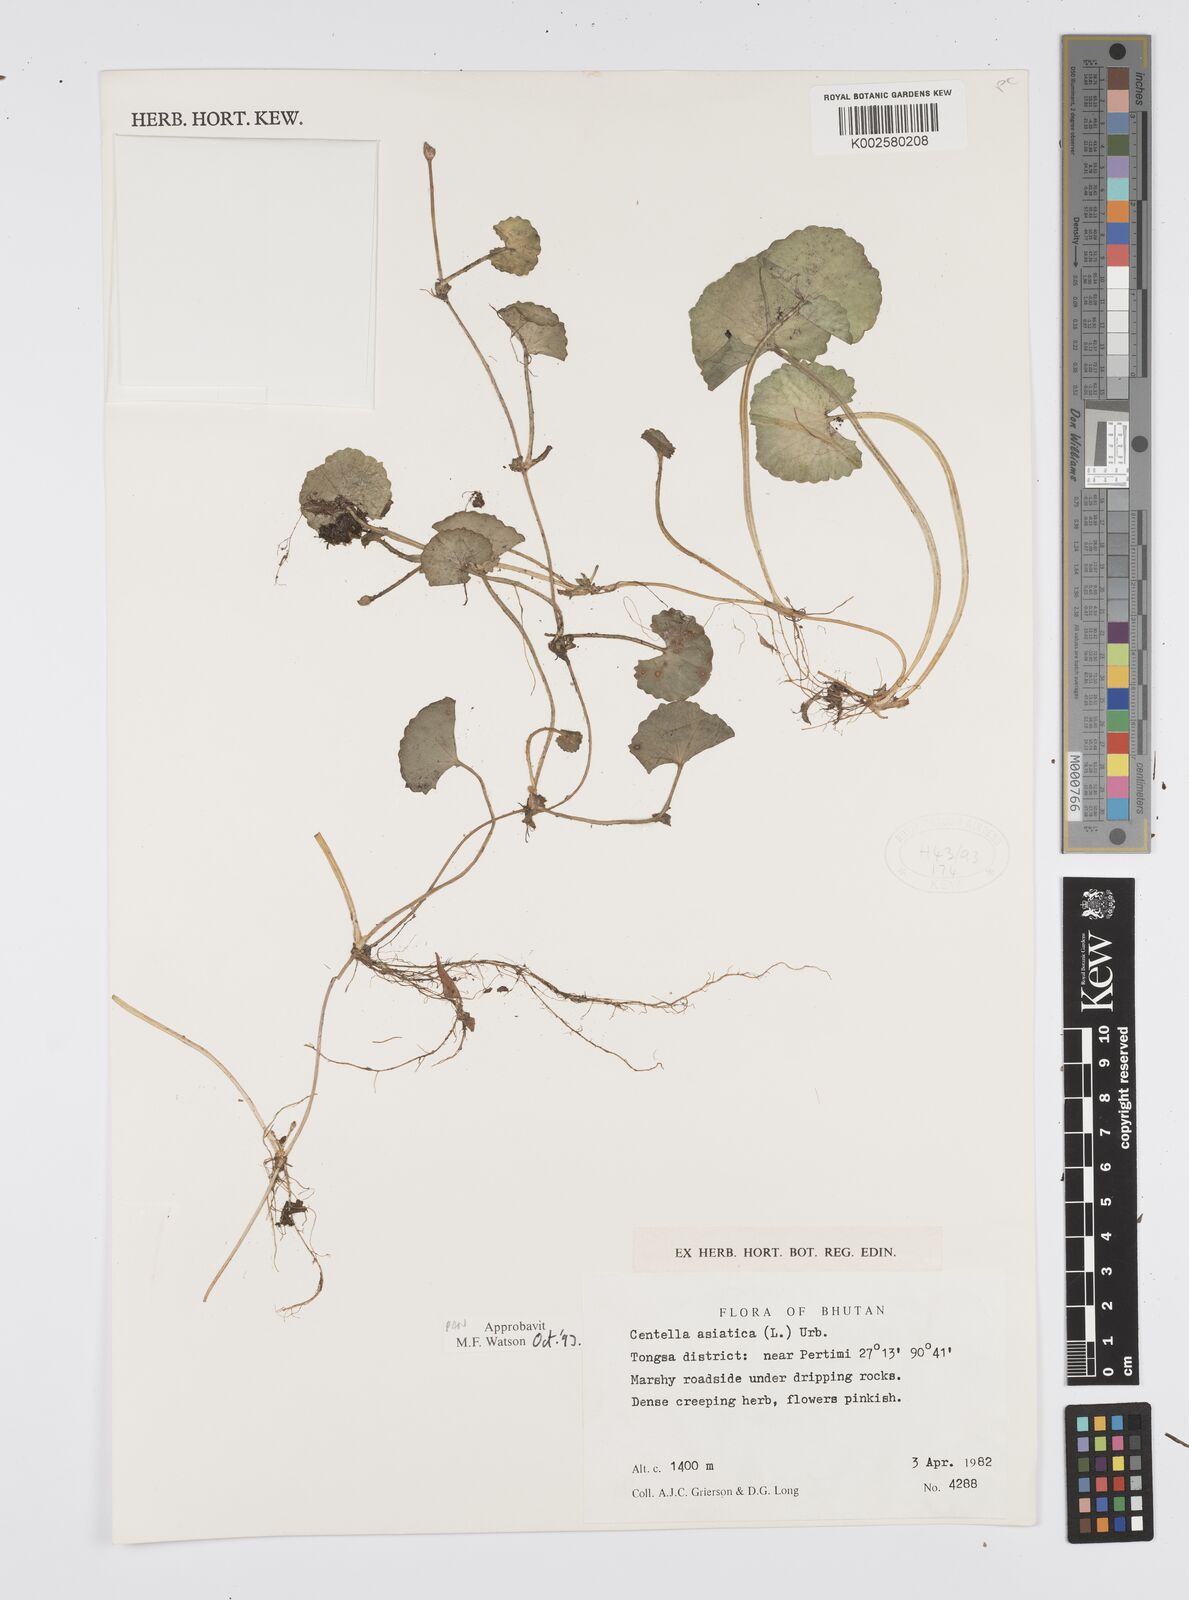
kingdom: Plantae
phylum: Tracheophyta
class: Magnoliopsida
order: Apiales
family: Apiaceae
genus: Centella
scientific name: Centella asiatica
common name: Spadeleaf
